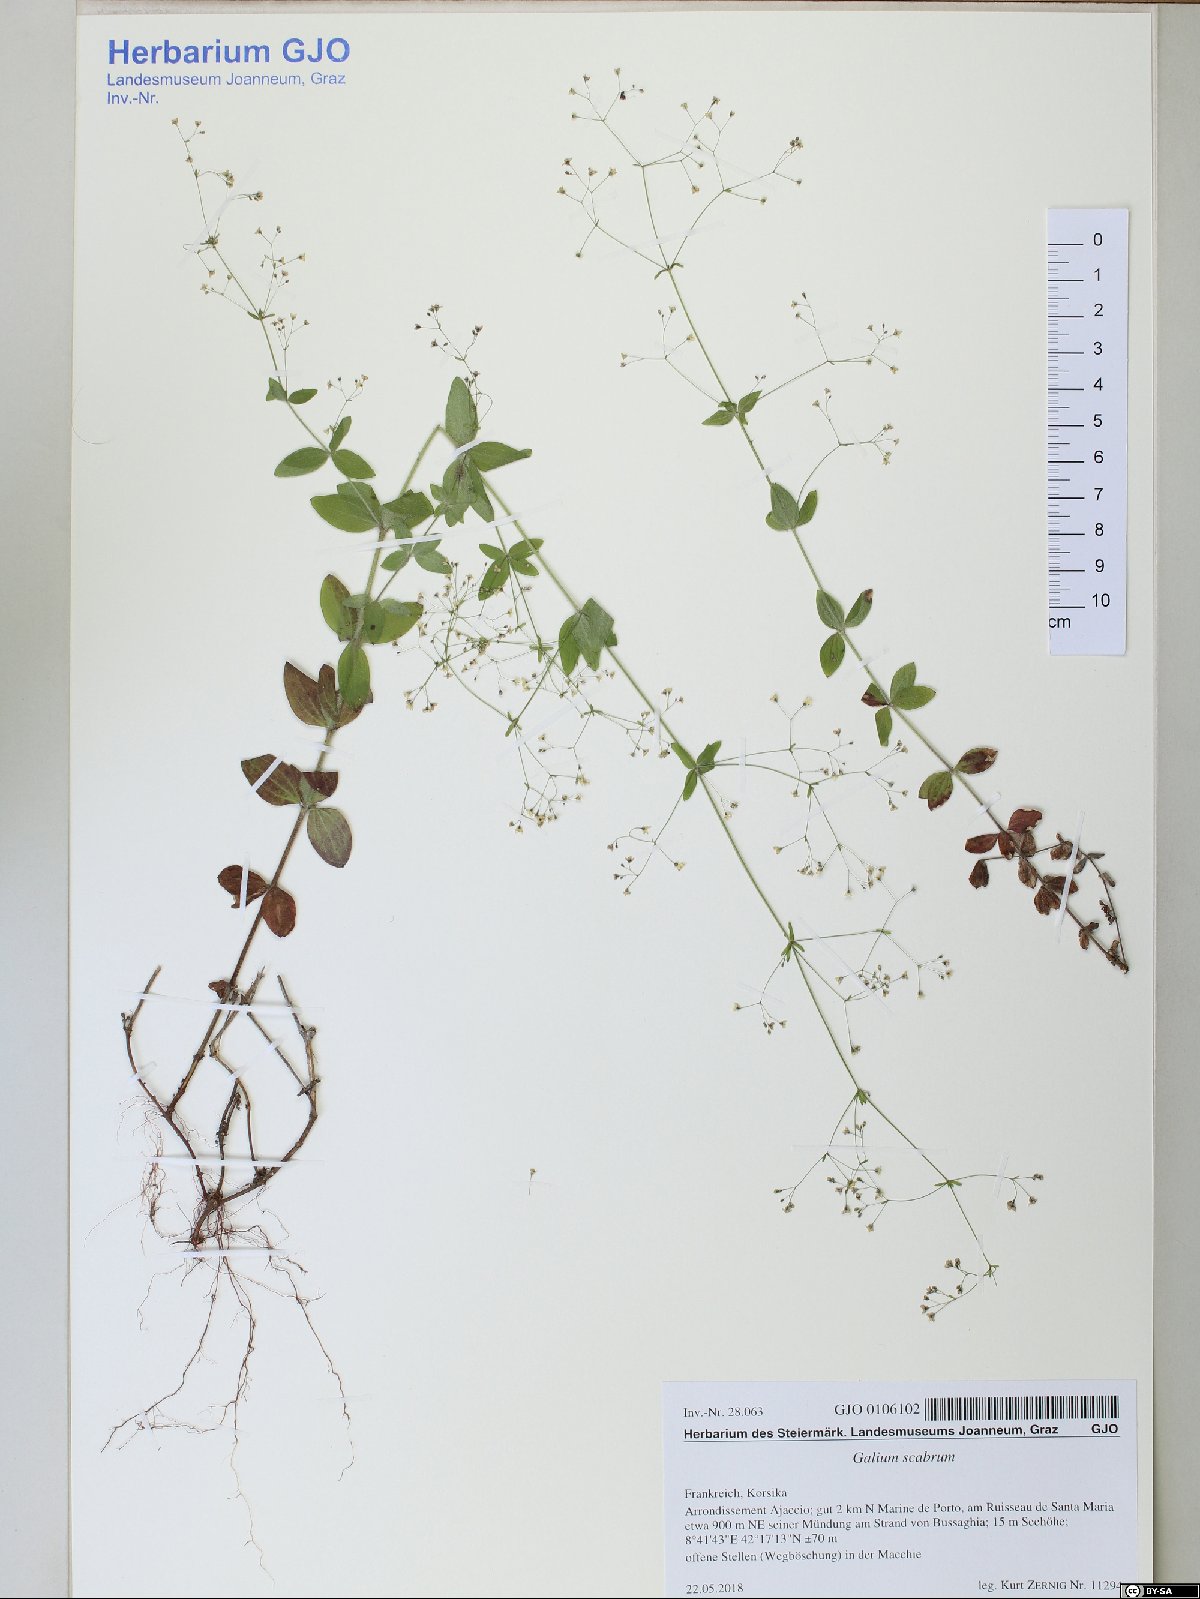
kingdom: Plantae
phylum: Tracheophyta
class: Magnoliopsida
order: Gentianales
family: Rubiaceae
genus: Galium
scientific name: Galium scabrum
